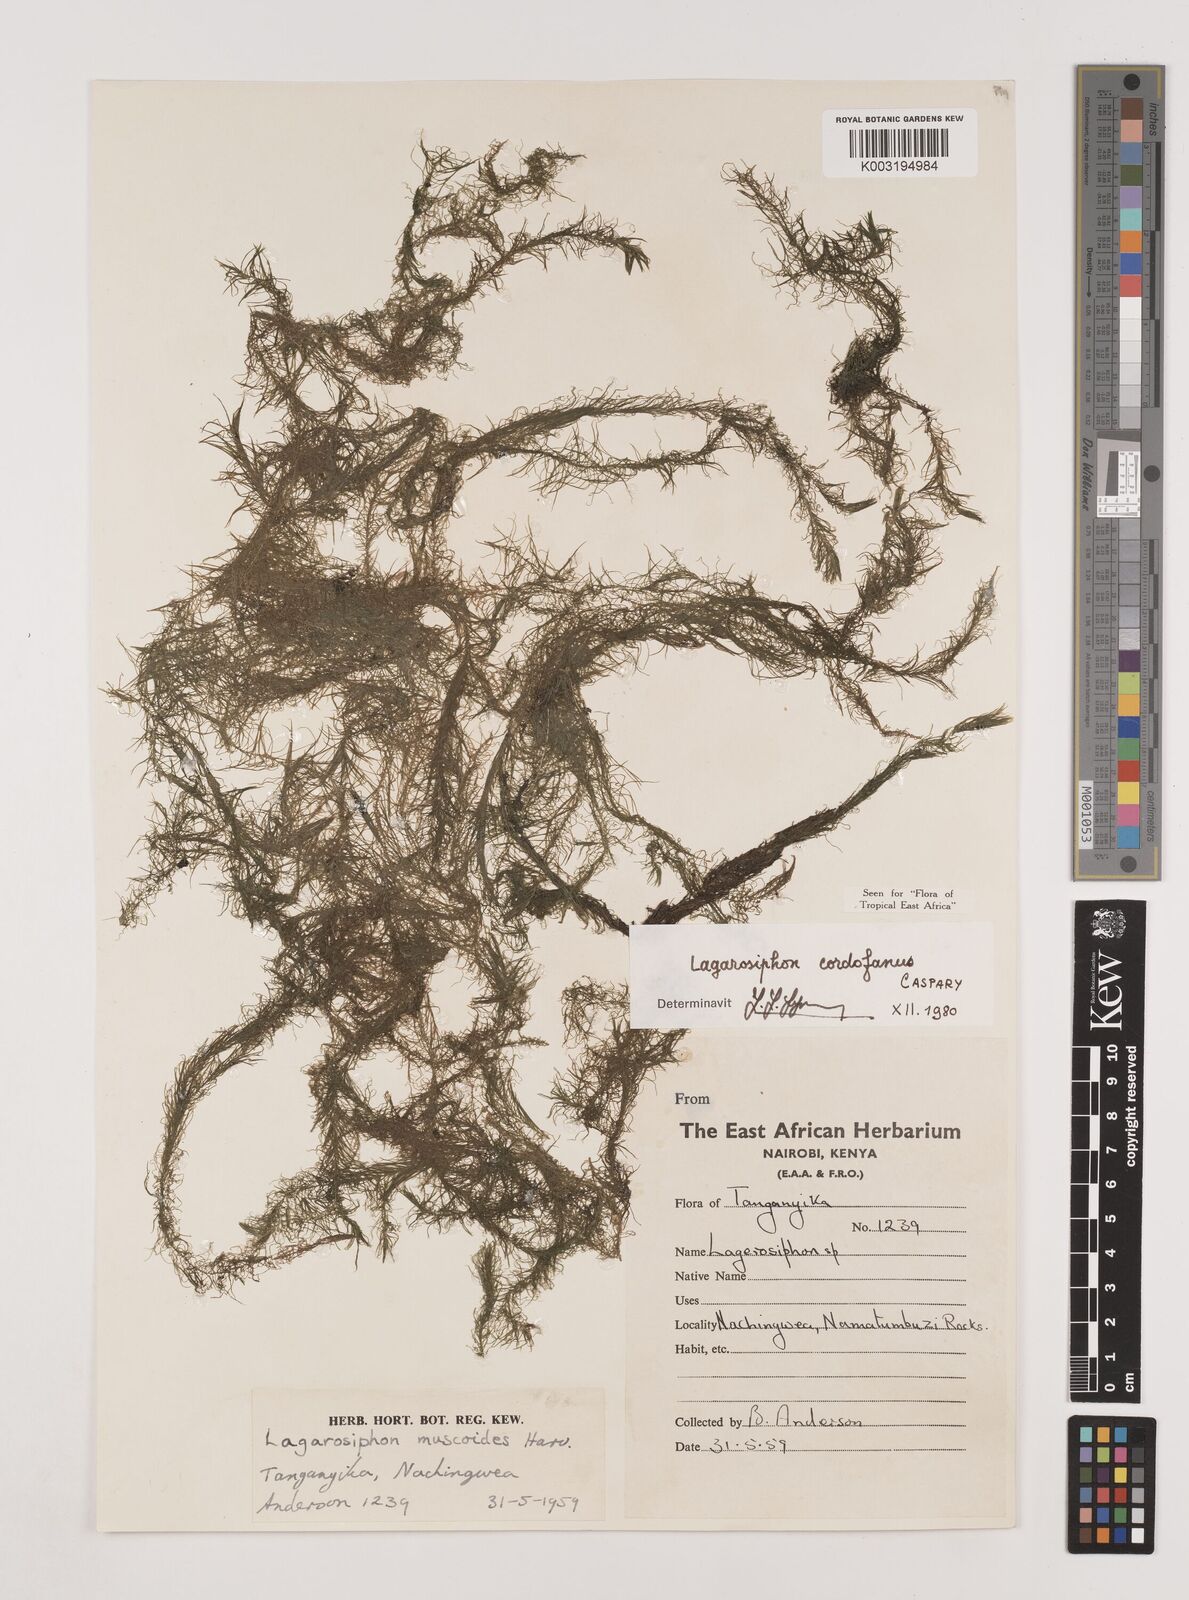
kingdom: Plantae
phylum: Tracheophyta
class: Liliopsida
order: Alismatales
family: Hydrocharitaceae
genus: Lagarosiphon
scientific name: Lagarosiphon cordofanus
